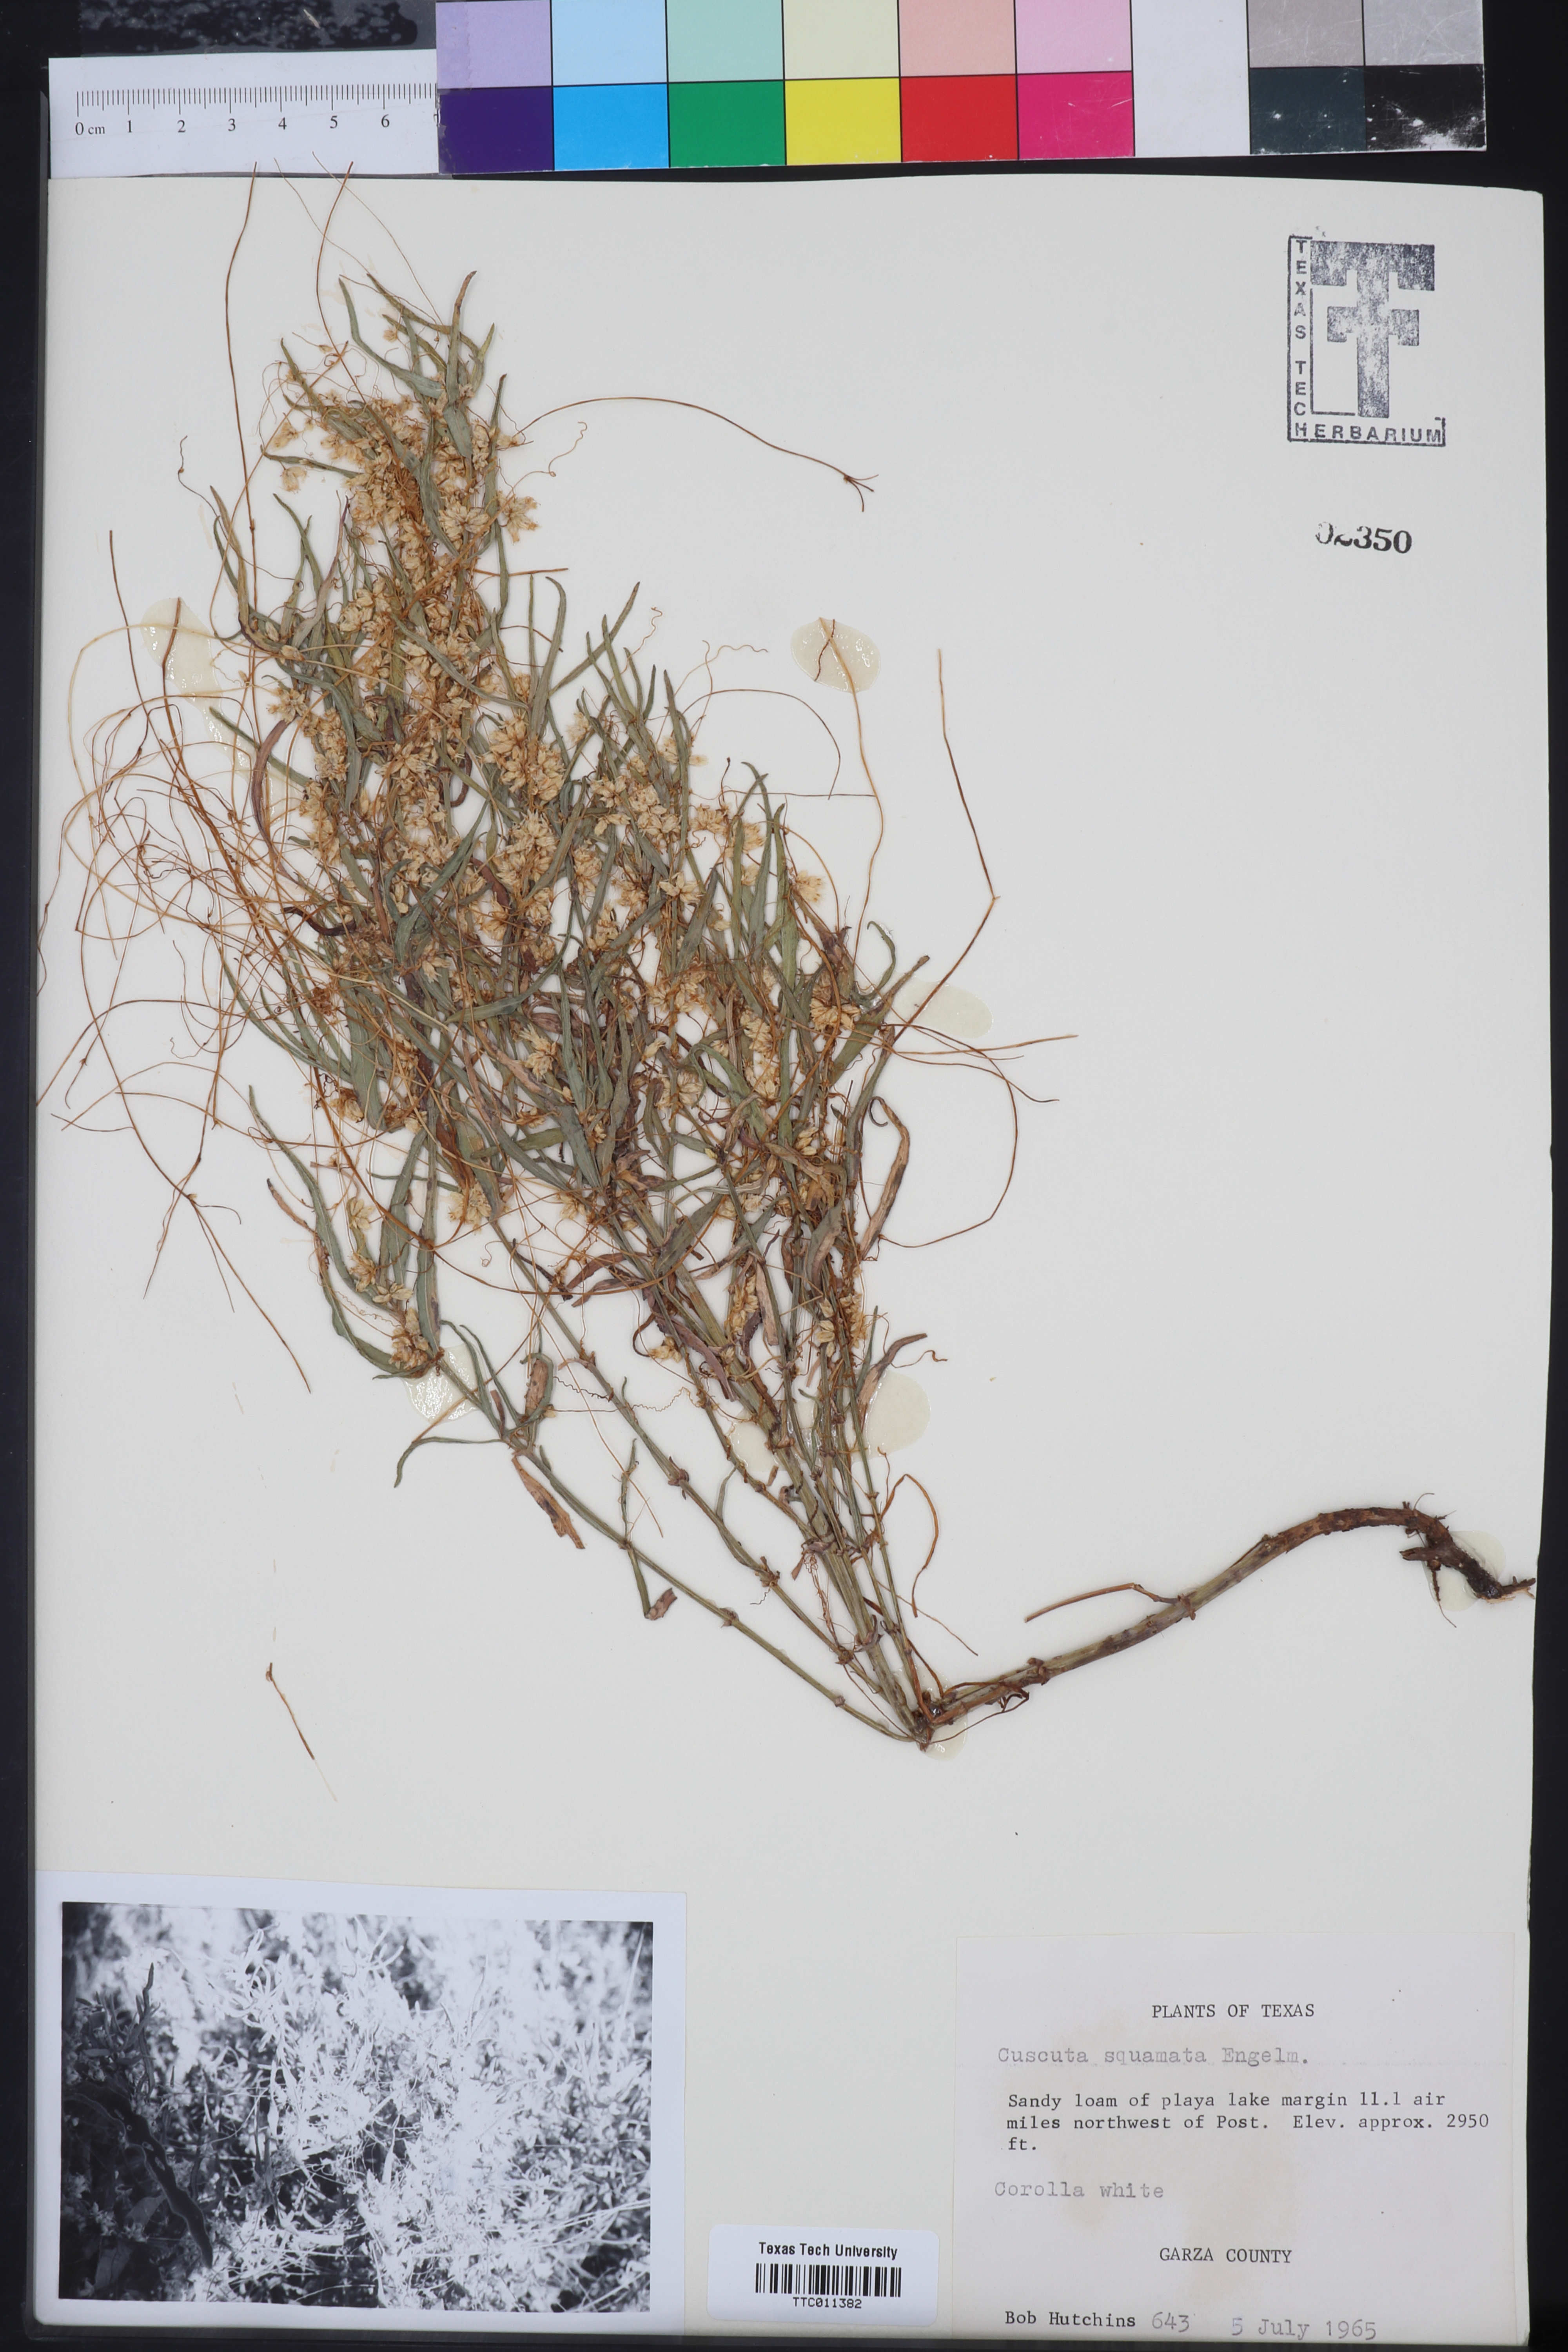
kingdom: Plantae
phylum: Tracheophyta
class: Magnoliopsida
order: Solanales
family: Convolvulaceae
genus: Cuscuta
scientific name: Cuscuta squamata
